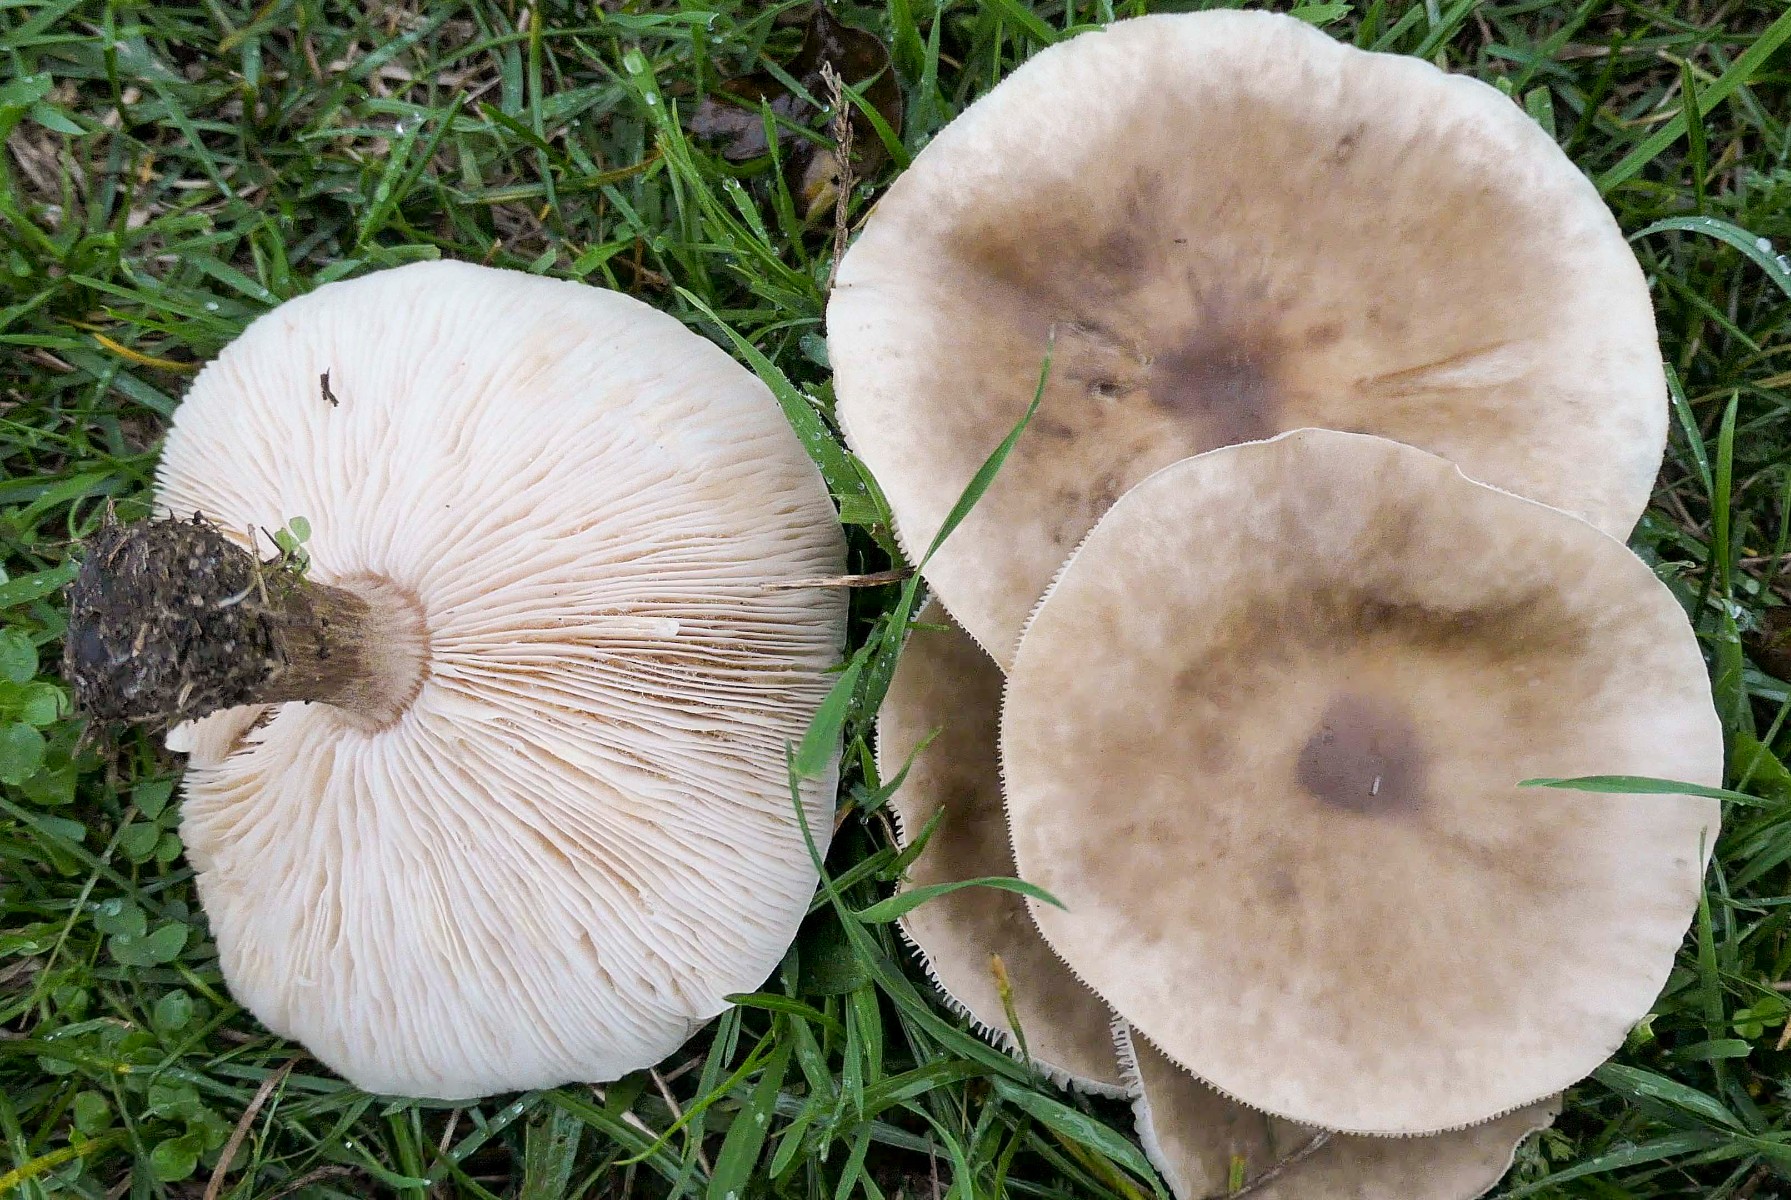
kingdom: Fungi
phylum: Basidiomycota
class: Agaricomycetes
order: Agaricales
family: Tricholomataceae
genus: Melanoleuca
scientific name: Melanoleuca
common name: munkehat
